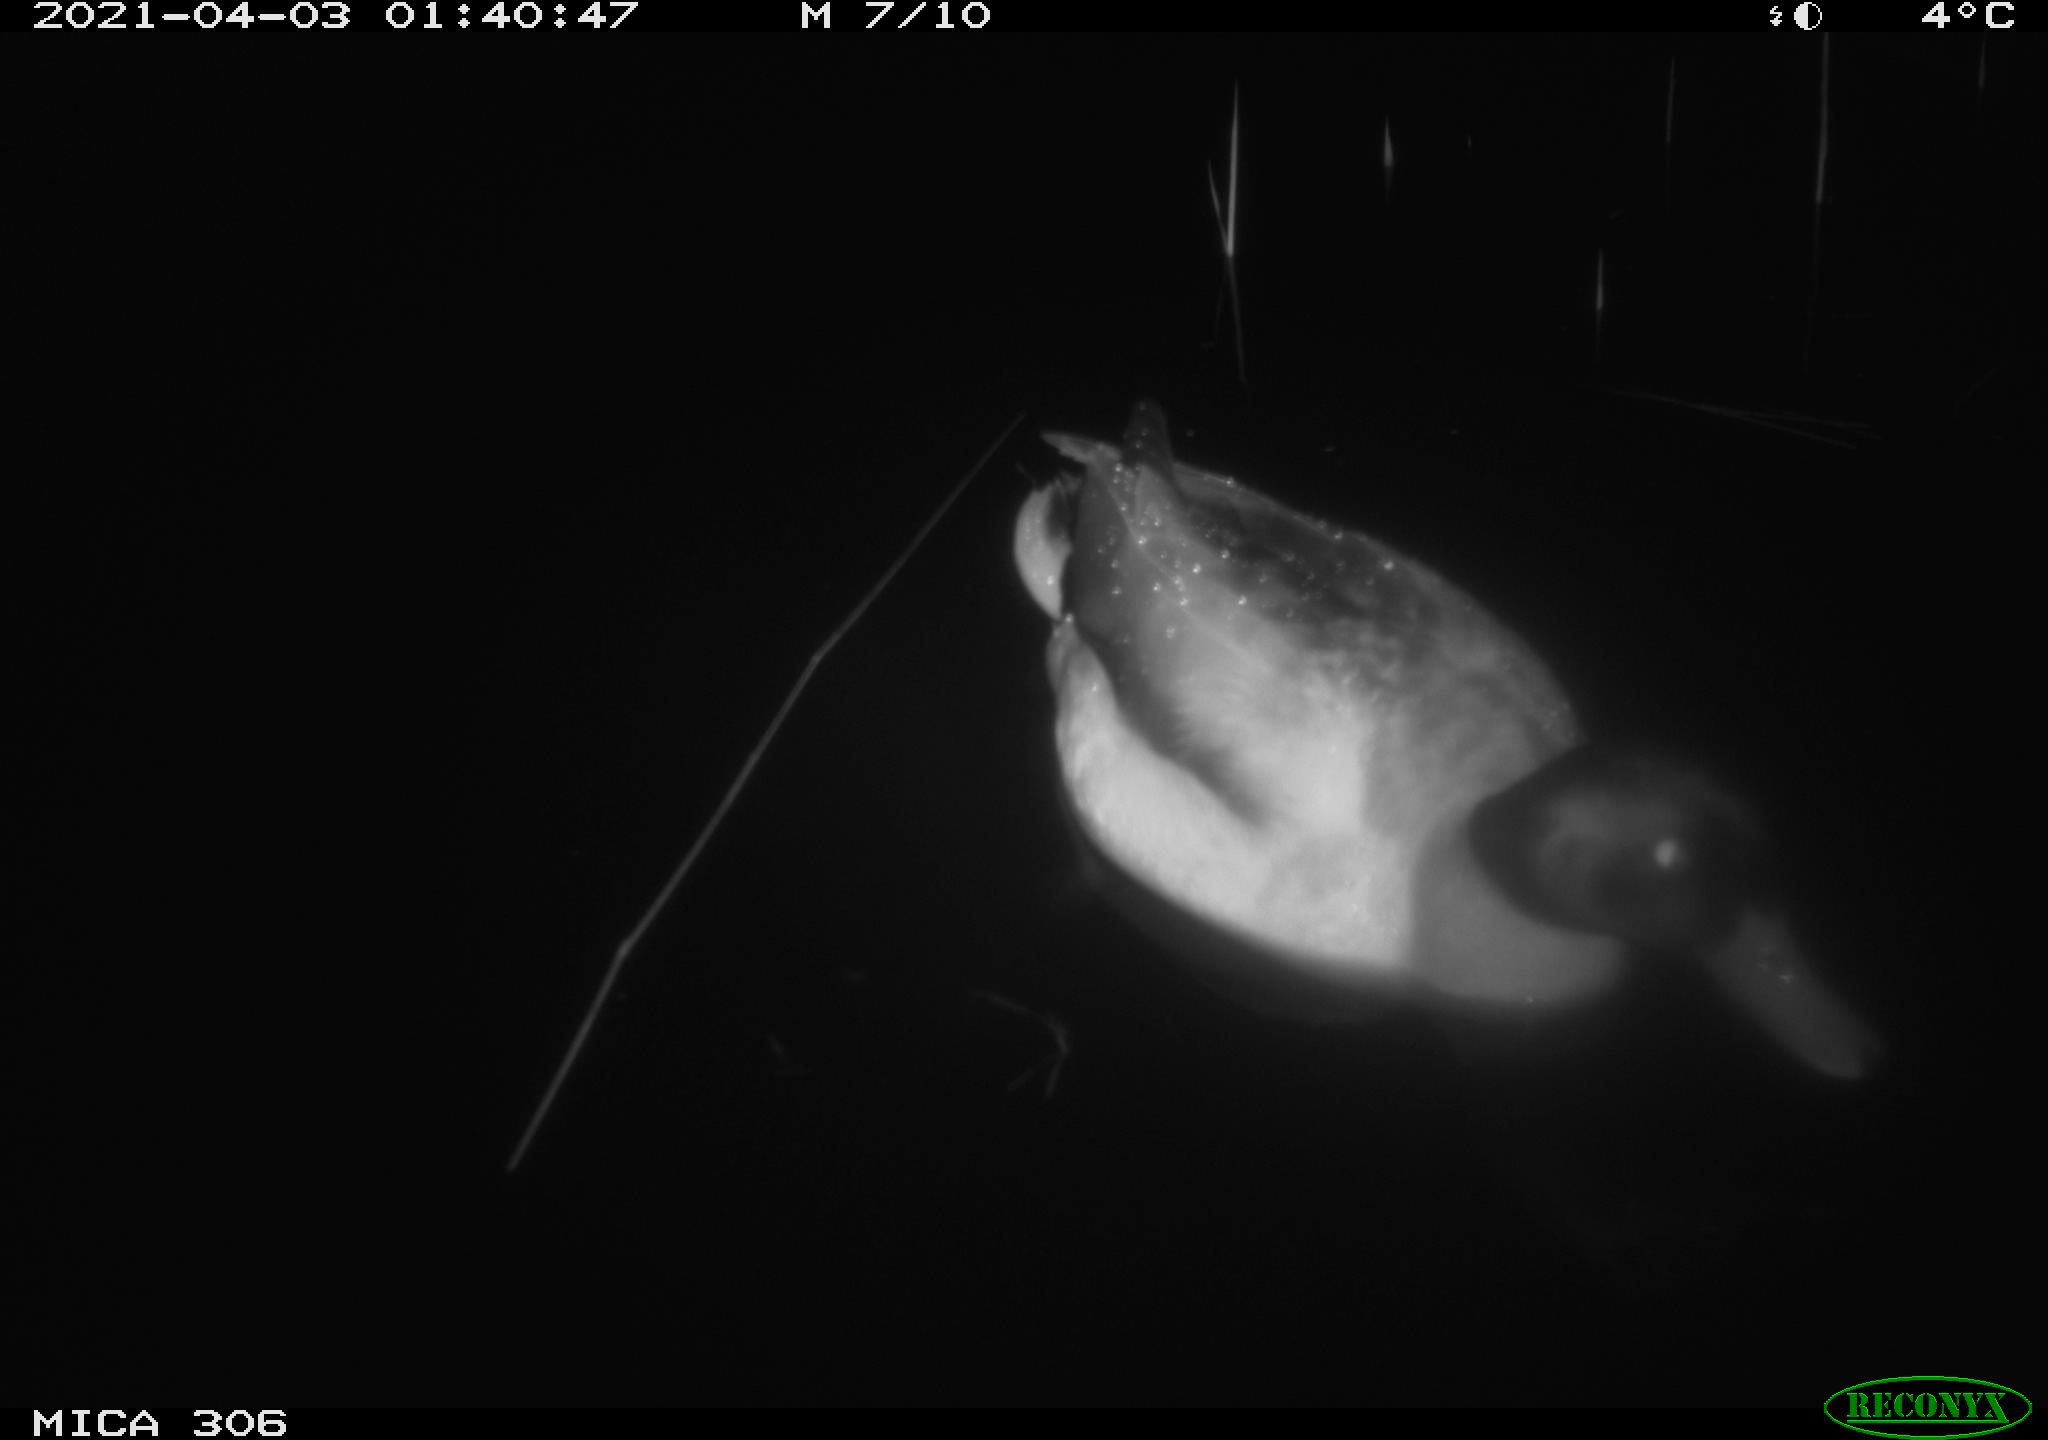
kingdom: Animalia
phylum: Chordata
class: Aves
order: Anseriformes
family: Anatidae
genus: Anas
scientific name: Anas
